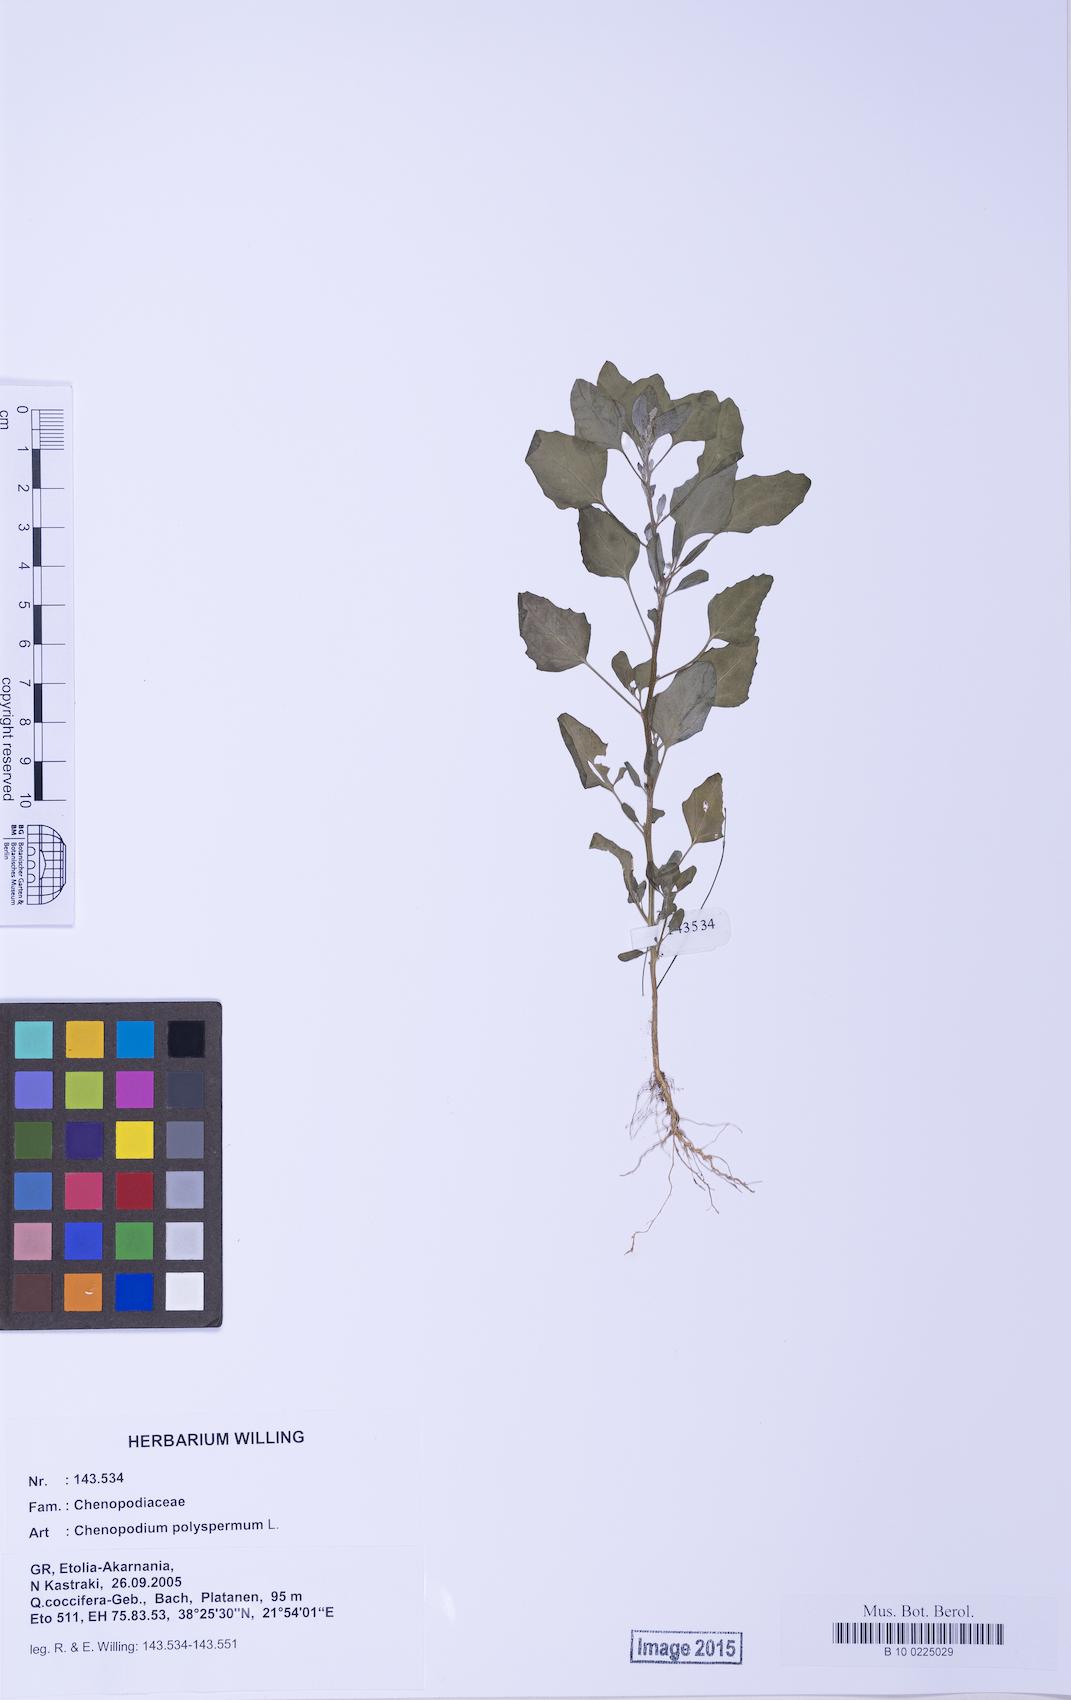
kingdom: Plantae
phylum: Tracheophyta
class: Magnoliopsida
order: Caryophyllales
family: Amaranthaceae
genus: Chenopodium
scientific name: Chenopodium album
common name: Fat-hen
